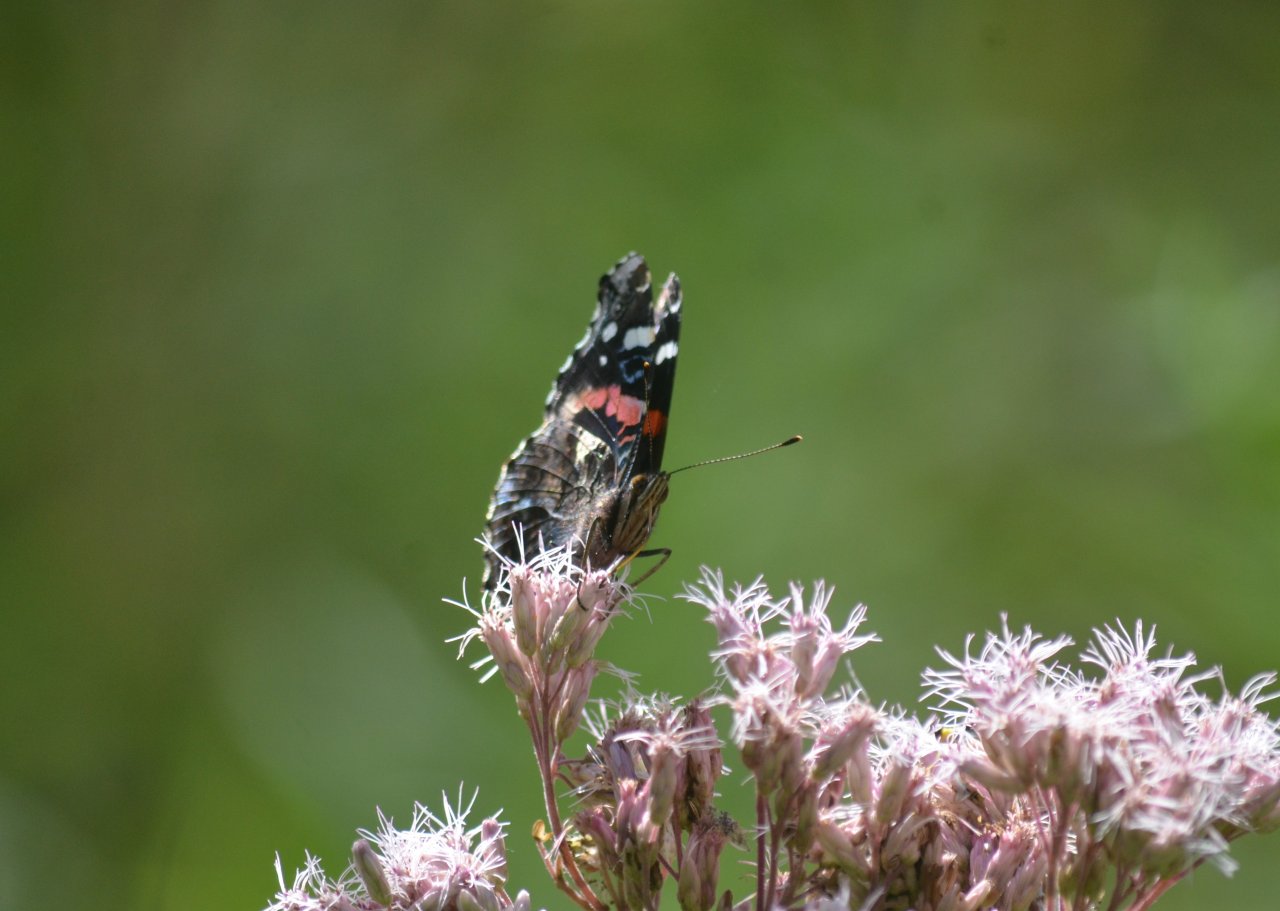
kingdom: Animalia
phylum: Arthropoda
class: Insecta
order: Lepidoptera
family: Nymphalidae
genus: Vanessa
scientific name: Vanessa atalanta
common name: Red Admiral
